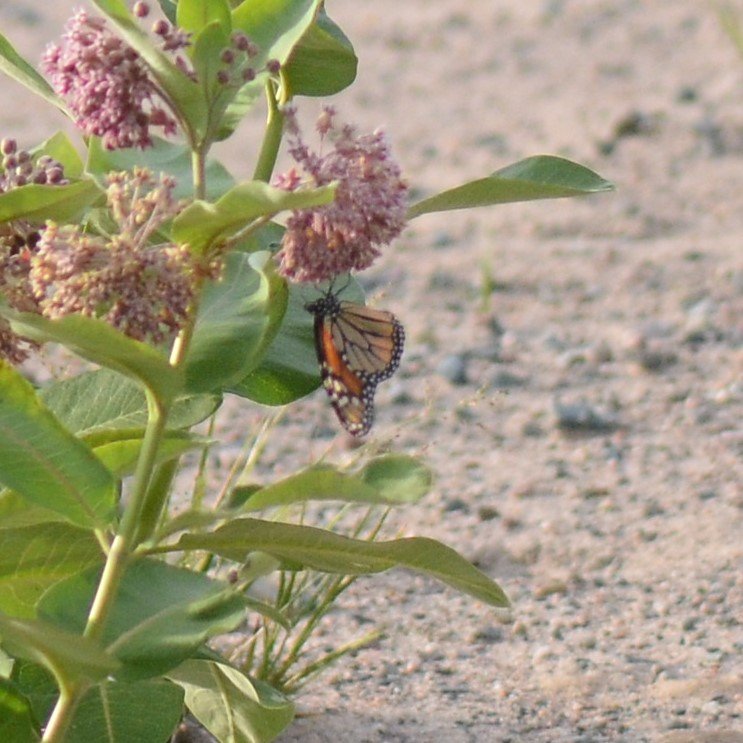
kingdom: Animalia
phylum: Arthropoda
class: Insecta
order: Lepidoptera
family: Nymphalidae
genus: Danaus
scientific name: Danaus plexippus
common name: Monarch
